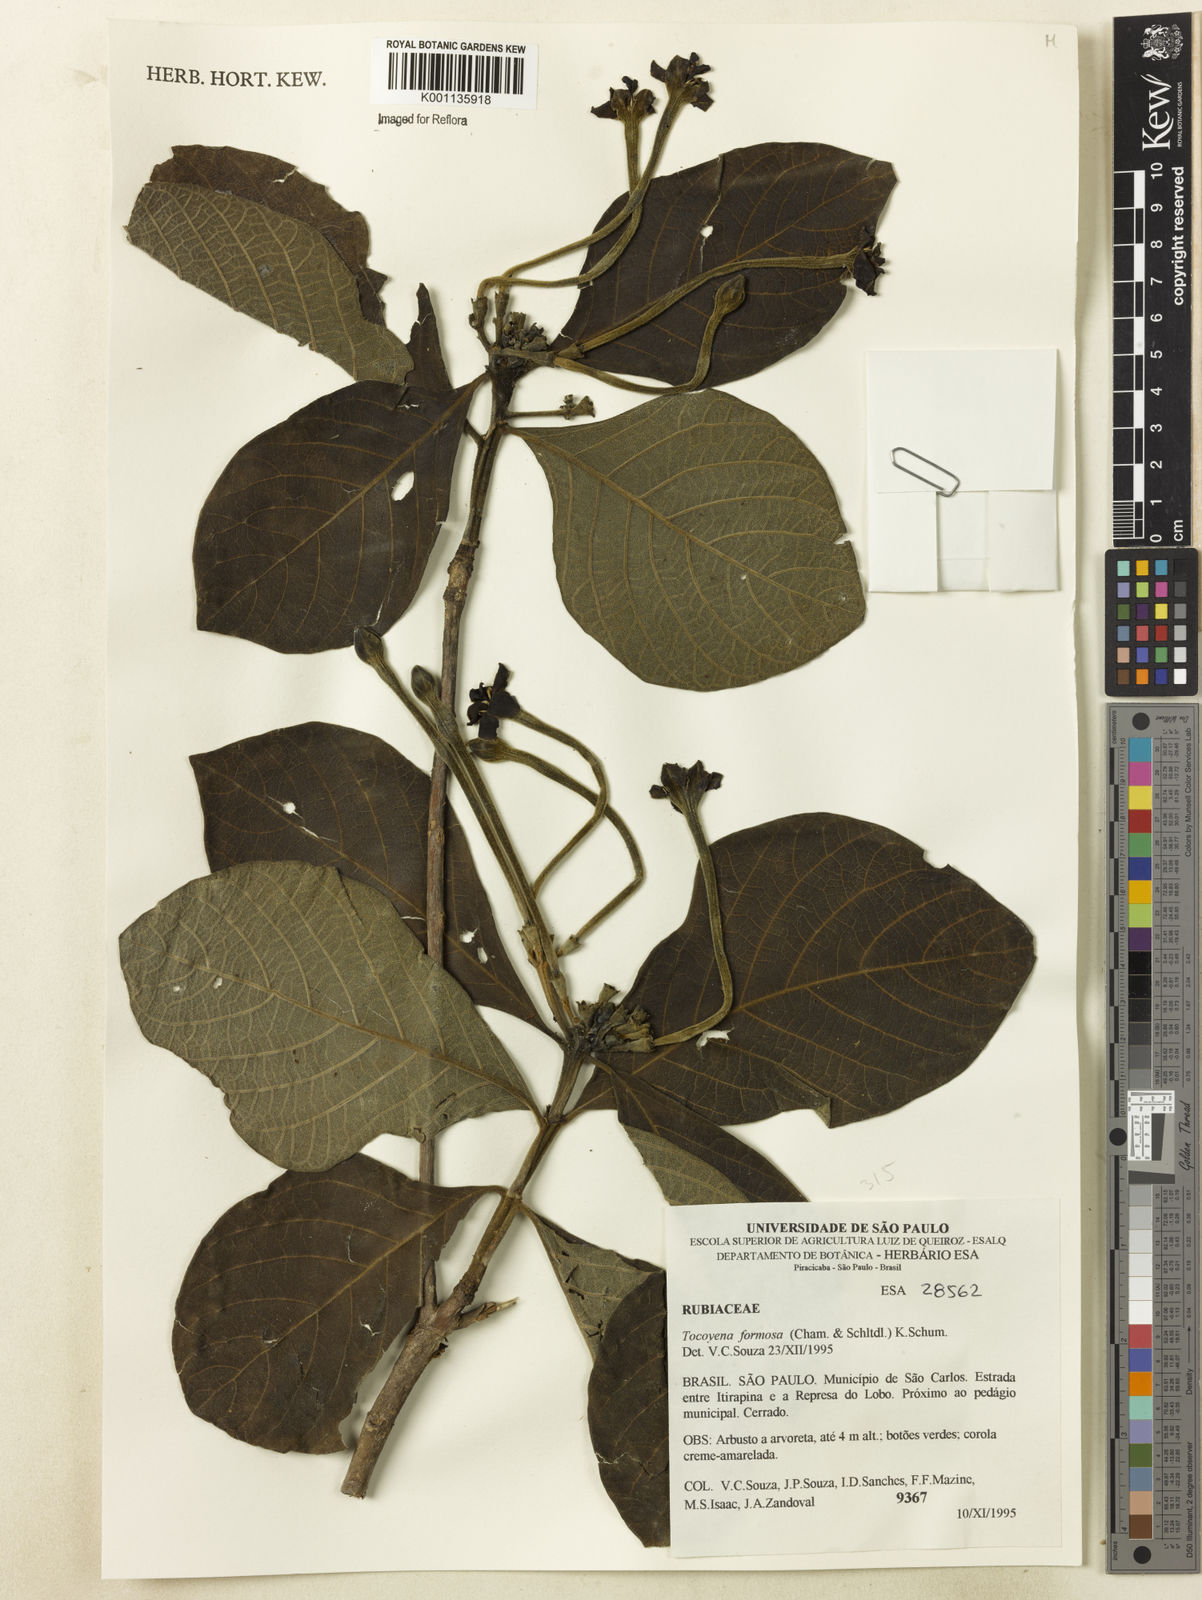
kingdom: Plantae
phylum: Tracheophyta
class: Magnoliopsida
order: Gentianales
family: Rubiaceae
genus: Tocoyena
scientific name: Tocoyena formosa
